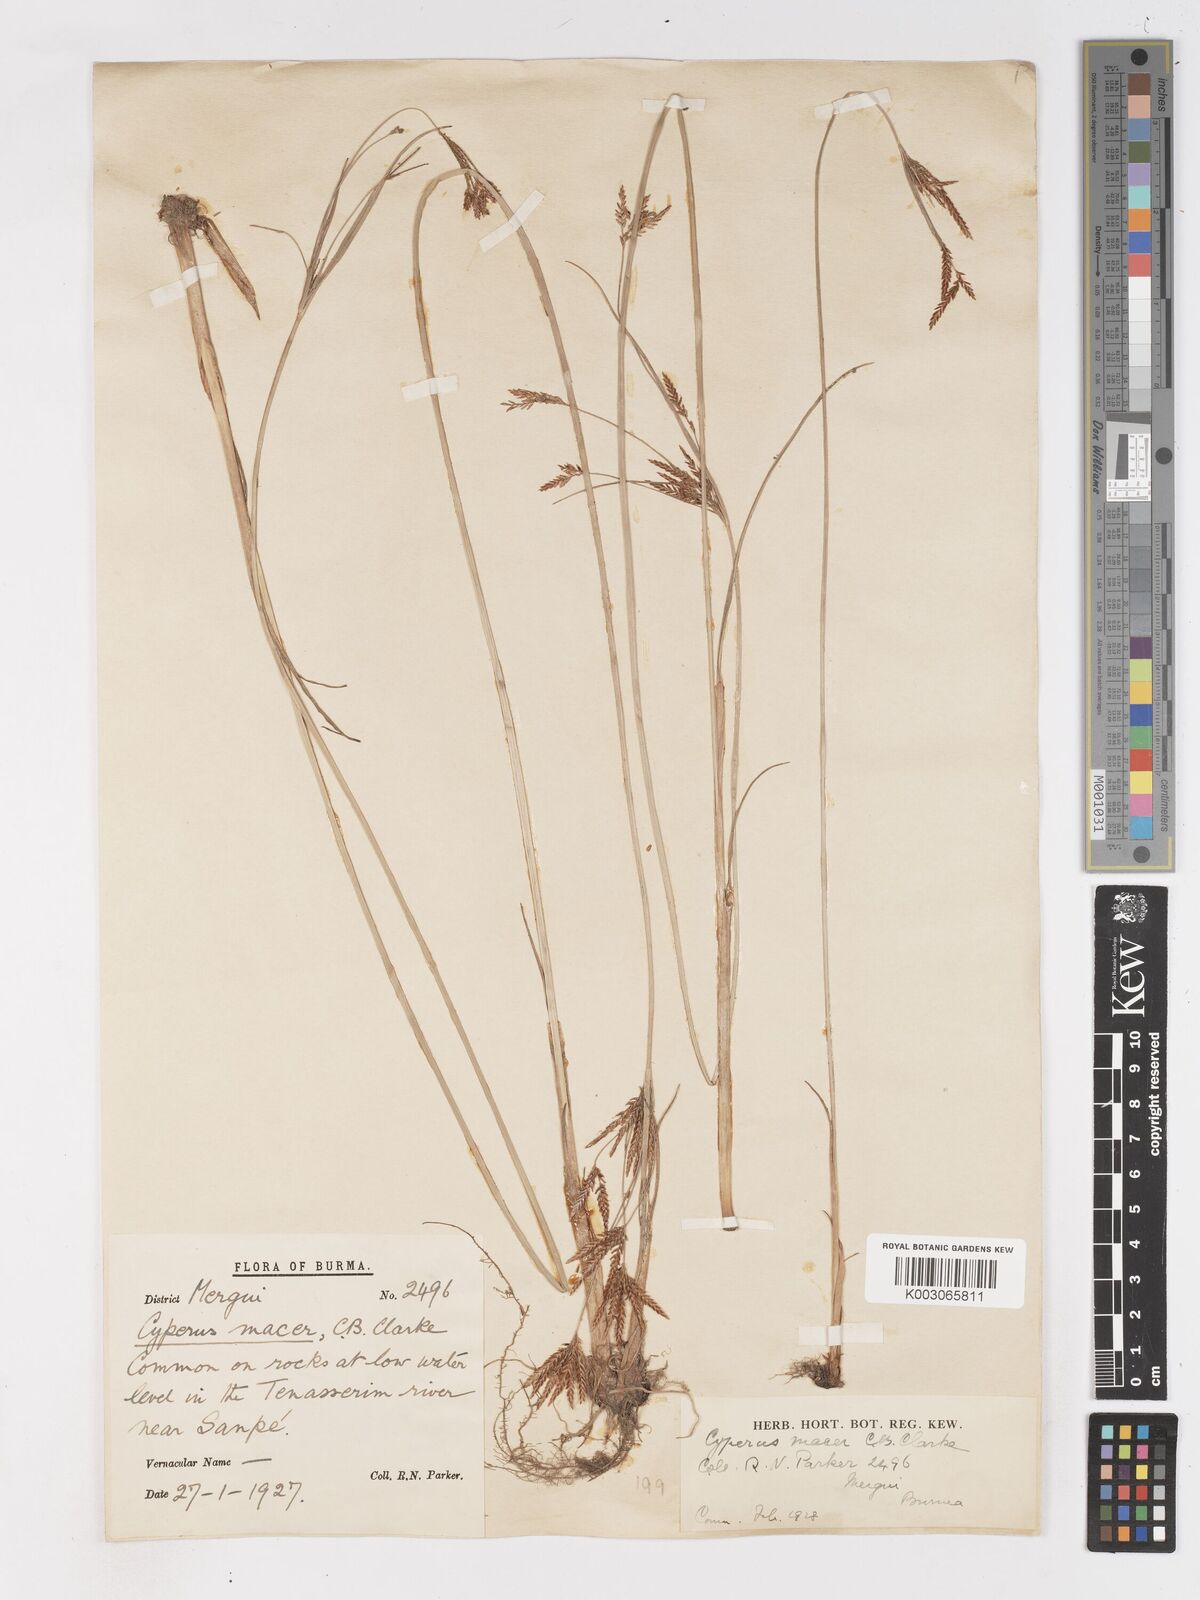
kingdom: Plantae
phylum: Tracheophyta
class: Liliopsida
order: Poales
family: Cyperaceae
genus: Cyperus
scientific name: Cyperus macer
